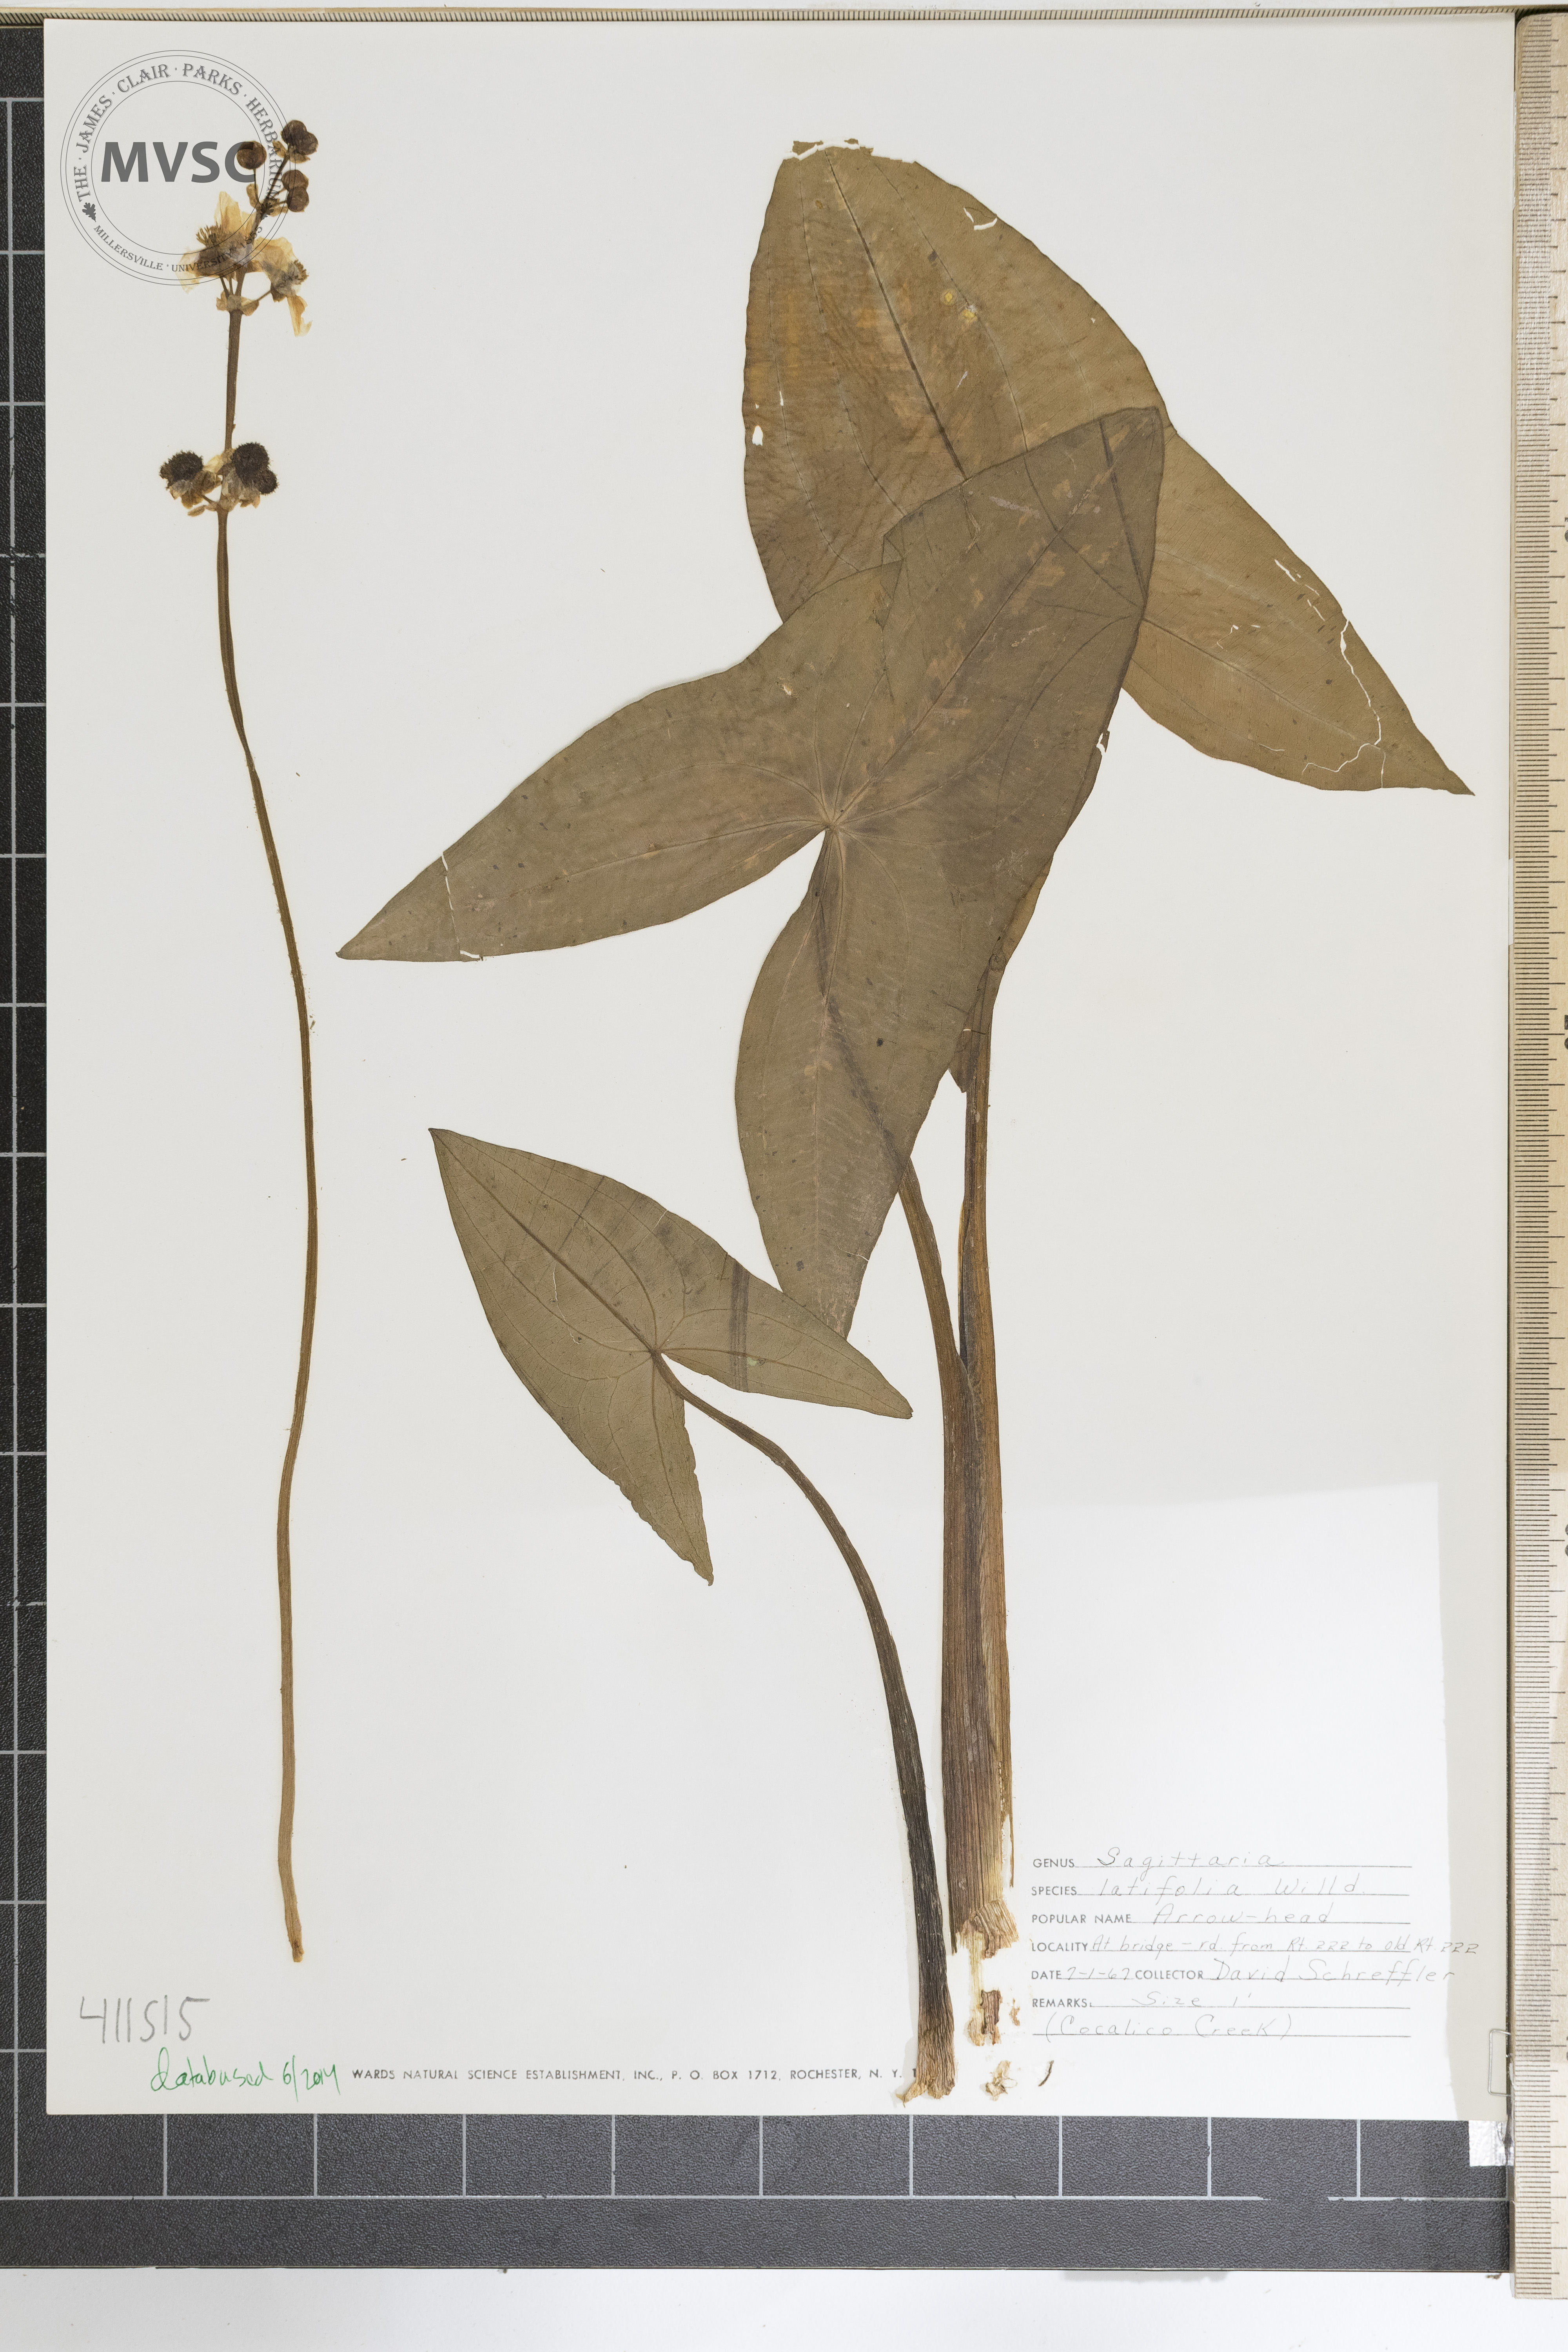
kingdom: Plantae
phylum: Tracheophyta
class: Liliopsida
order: Alismatales
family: Alismataceae
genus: Sagittaria
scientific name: Sagittaria latifolia
